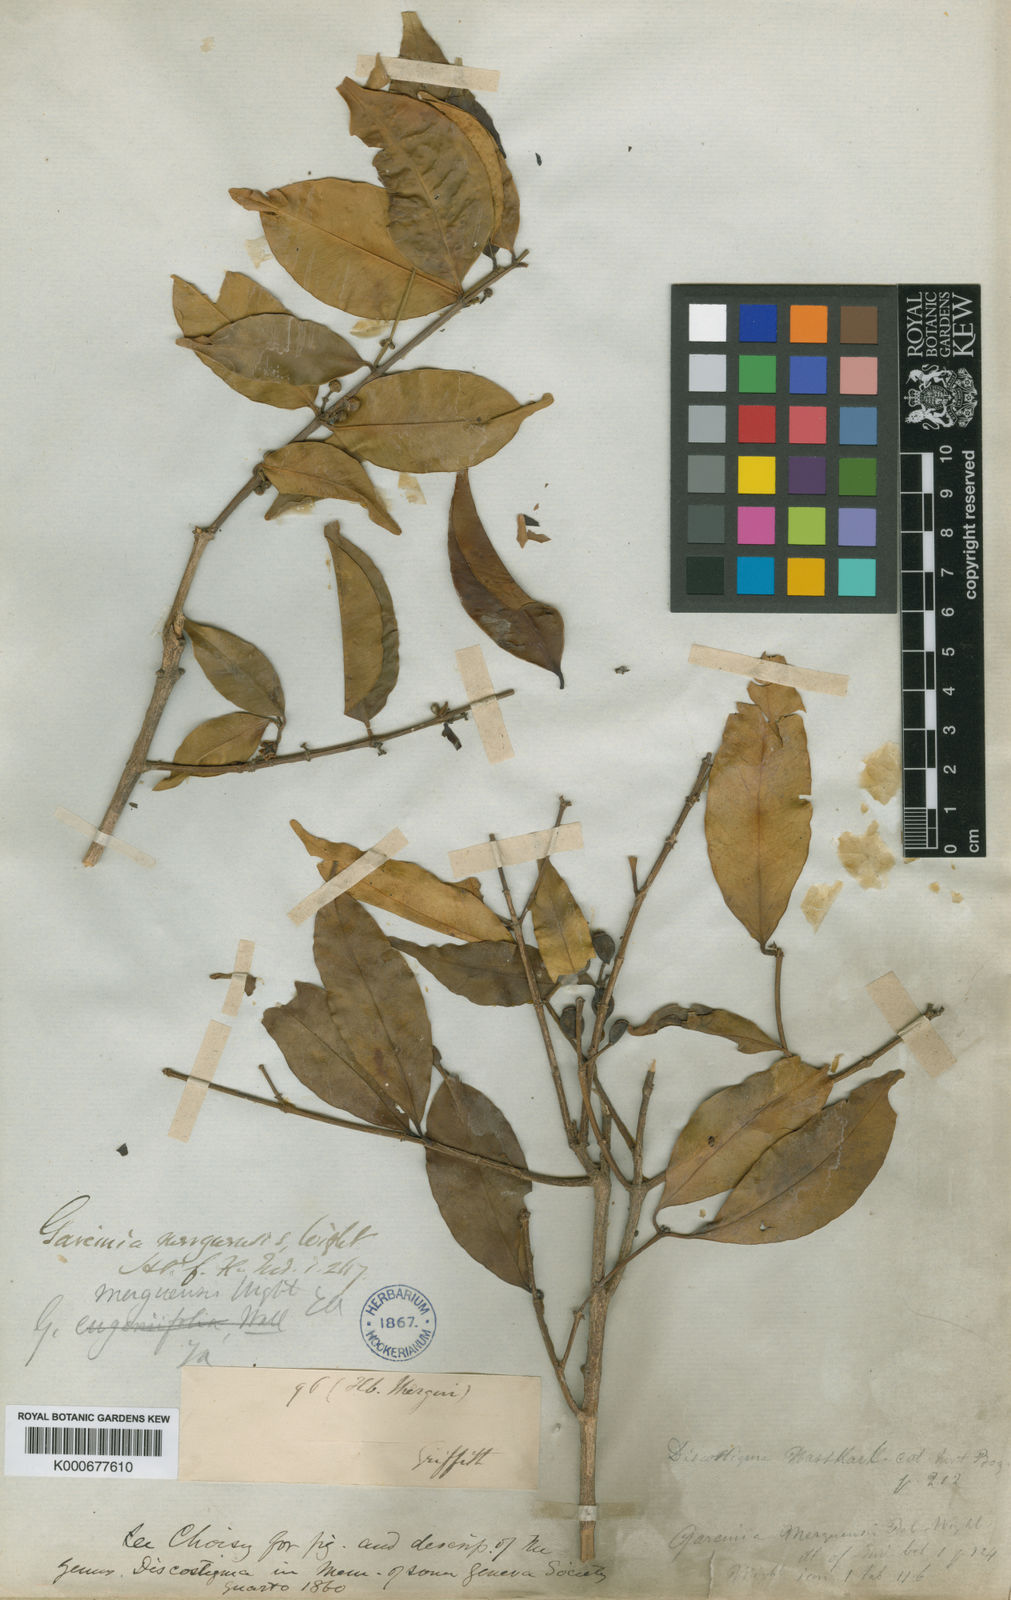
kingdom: Plantae
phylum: Tracheophyta
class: Magnoliopsida
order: Malpighiales
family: Clusiaceae
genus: Garcinia
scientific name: Garcinia merguensis
